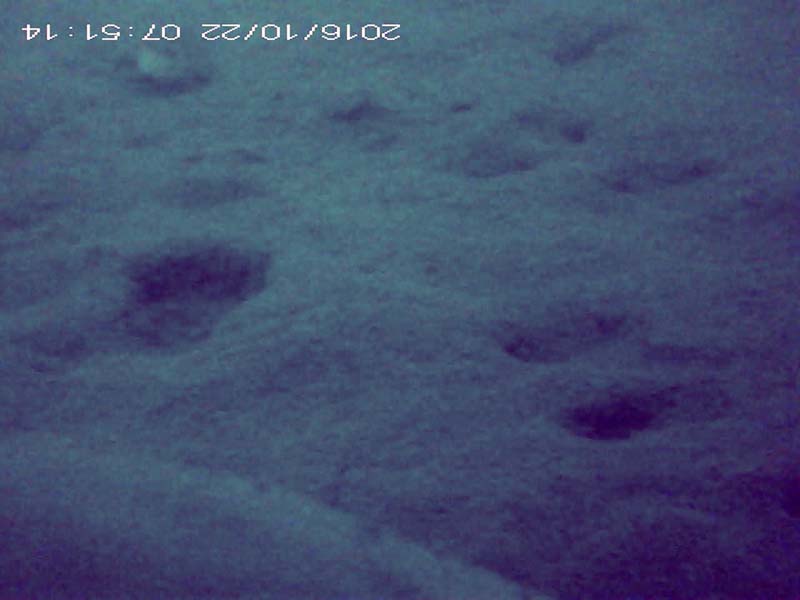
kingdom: Animalia
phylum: Chordata
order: Cypriniformes
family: Cyprinidae
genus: Pseudogobio
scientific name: Pseudogobio esocinus
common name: カマツカ
